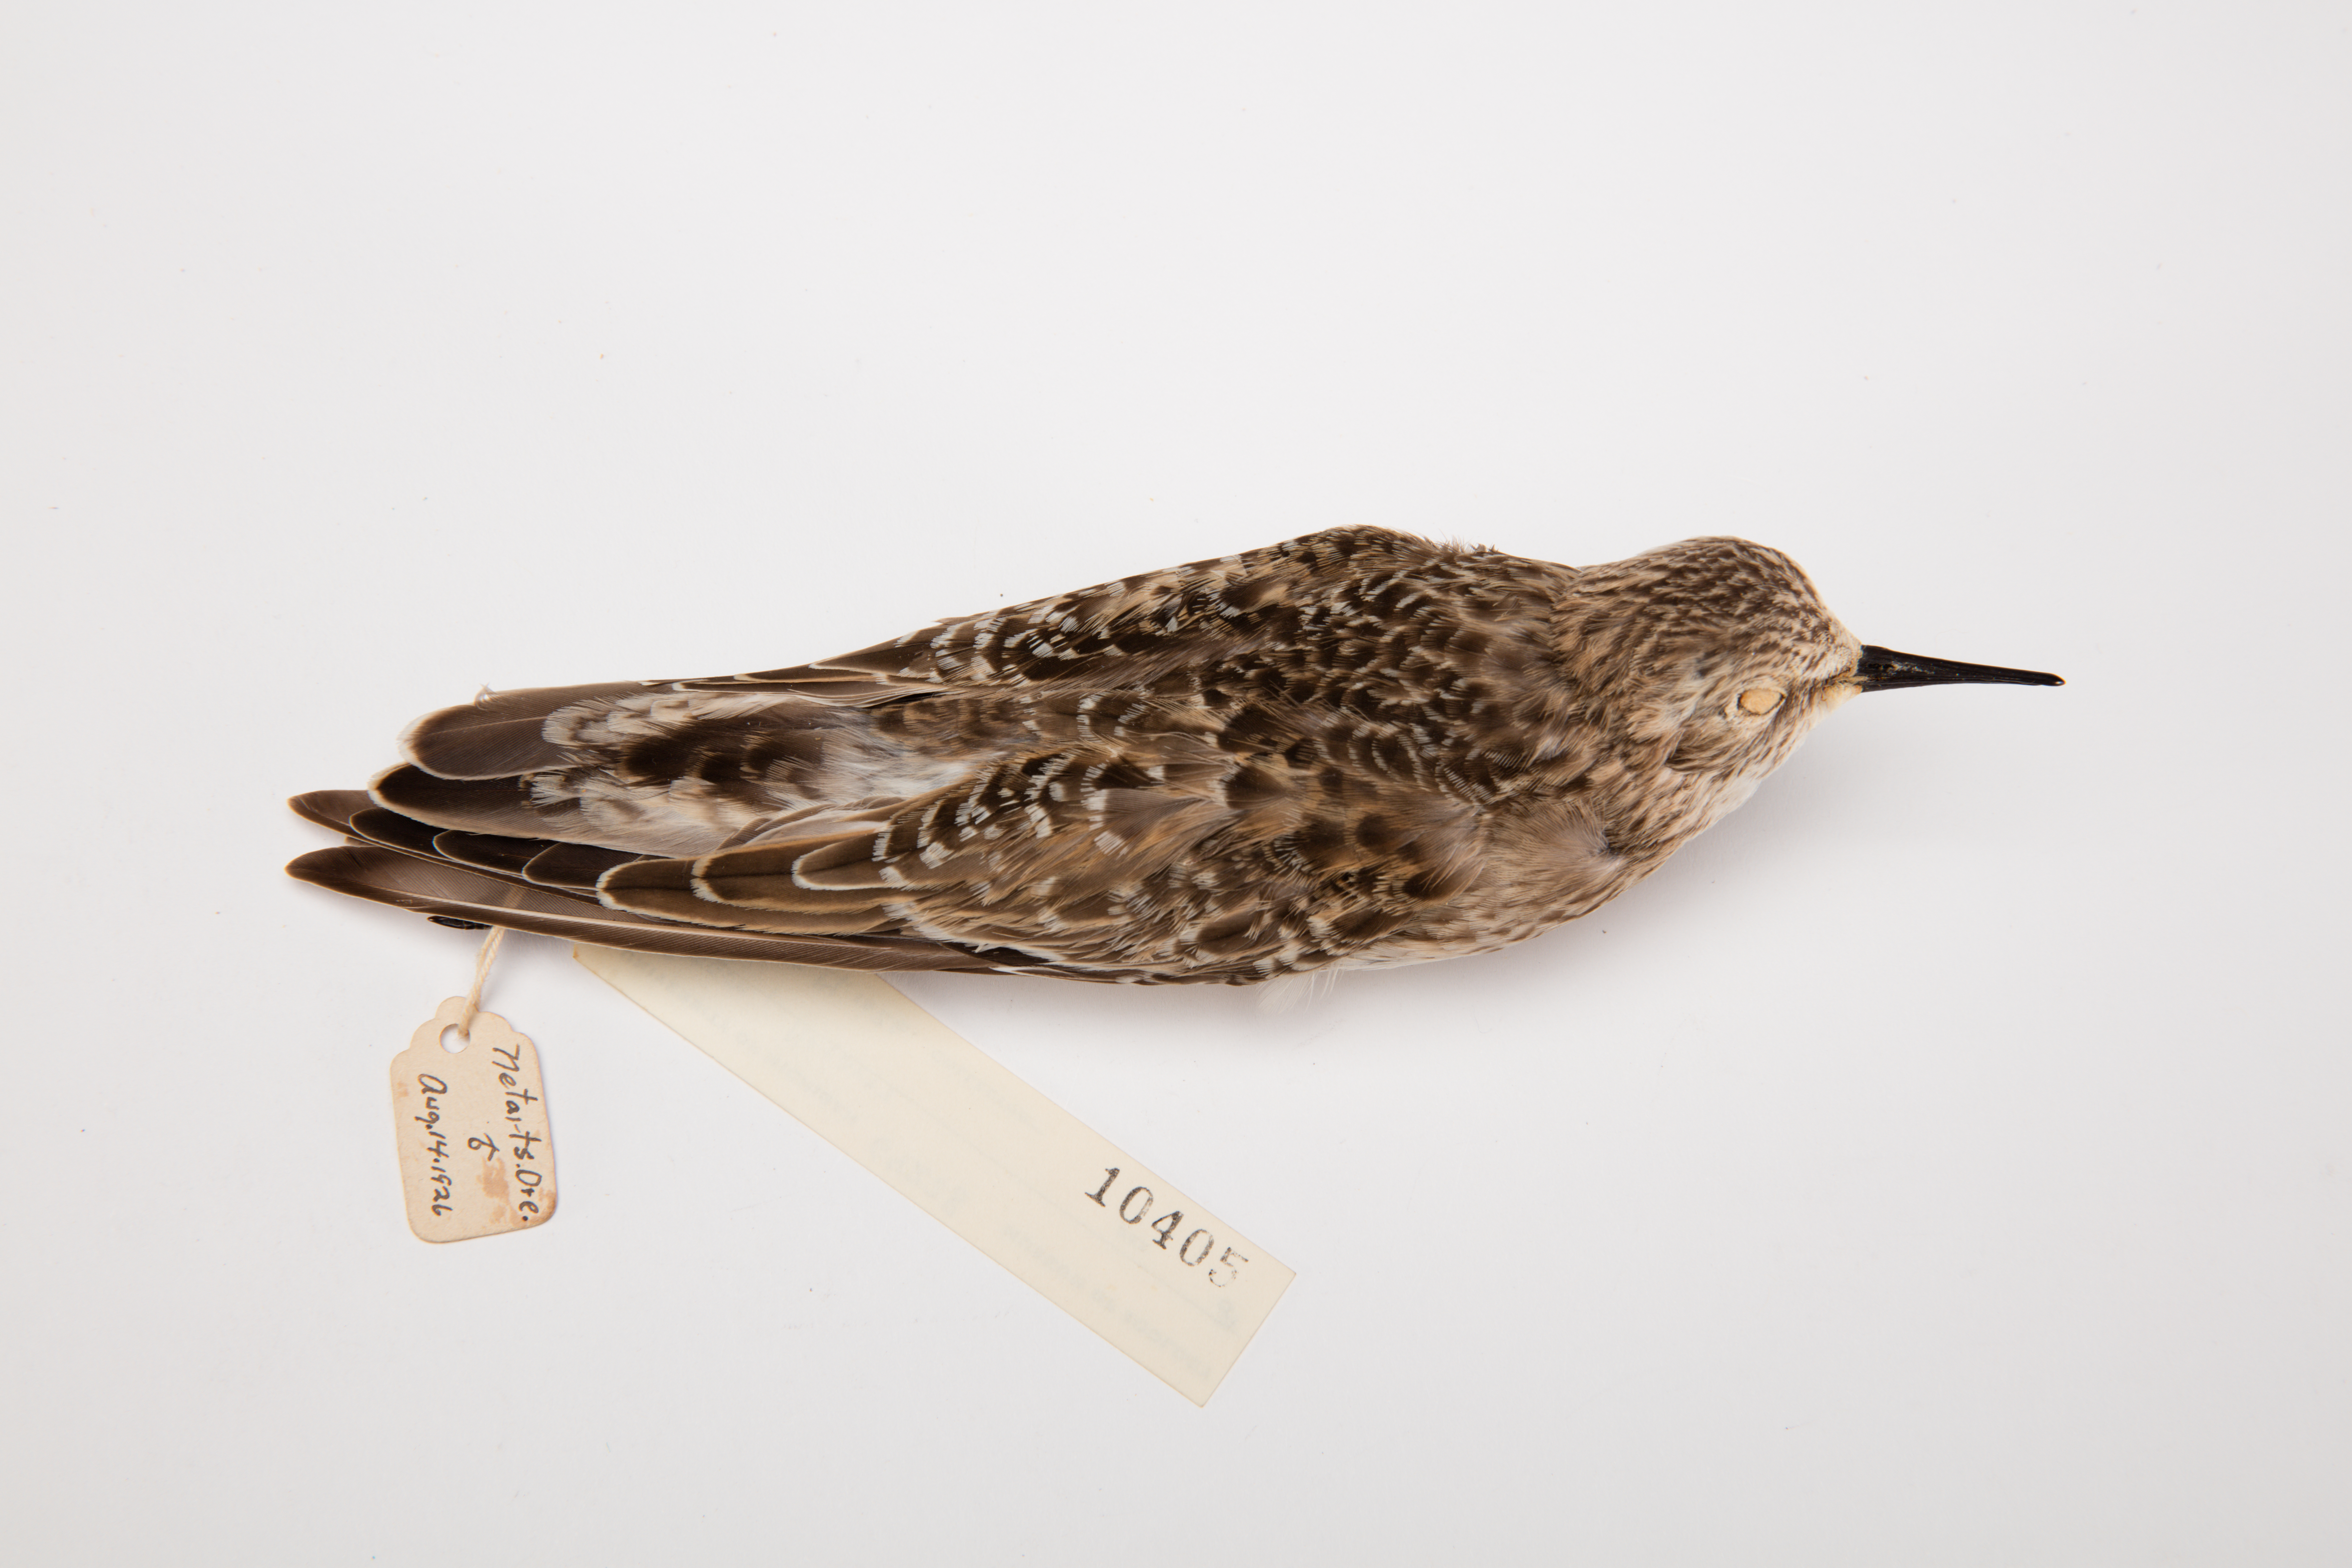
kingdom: Animalia
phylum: Chordata
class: Aves
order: Charadriiformes
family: Scolopacidae
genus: Calidris
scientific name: Calidris bairdii
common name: Baird's sandpiper
